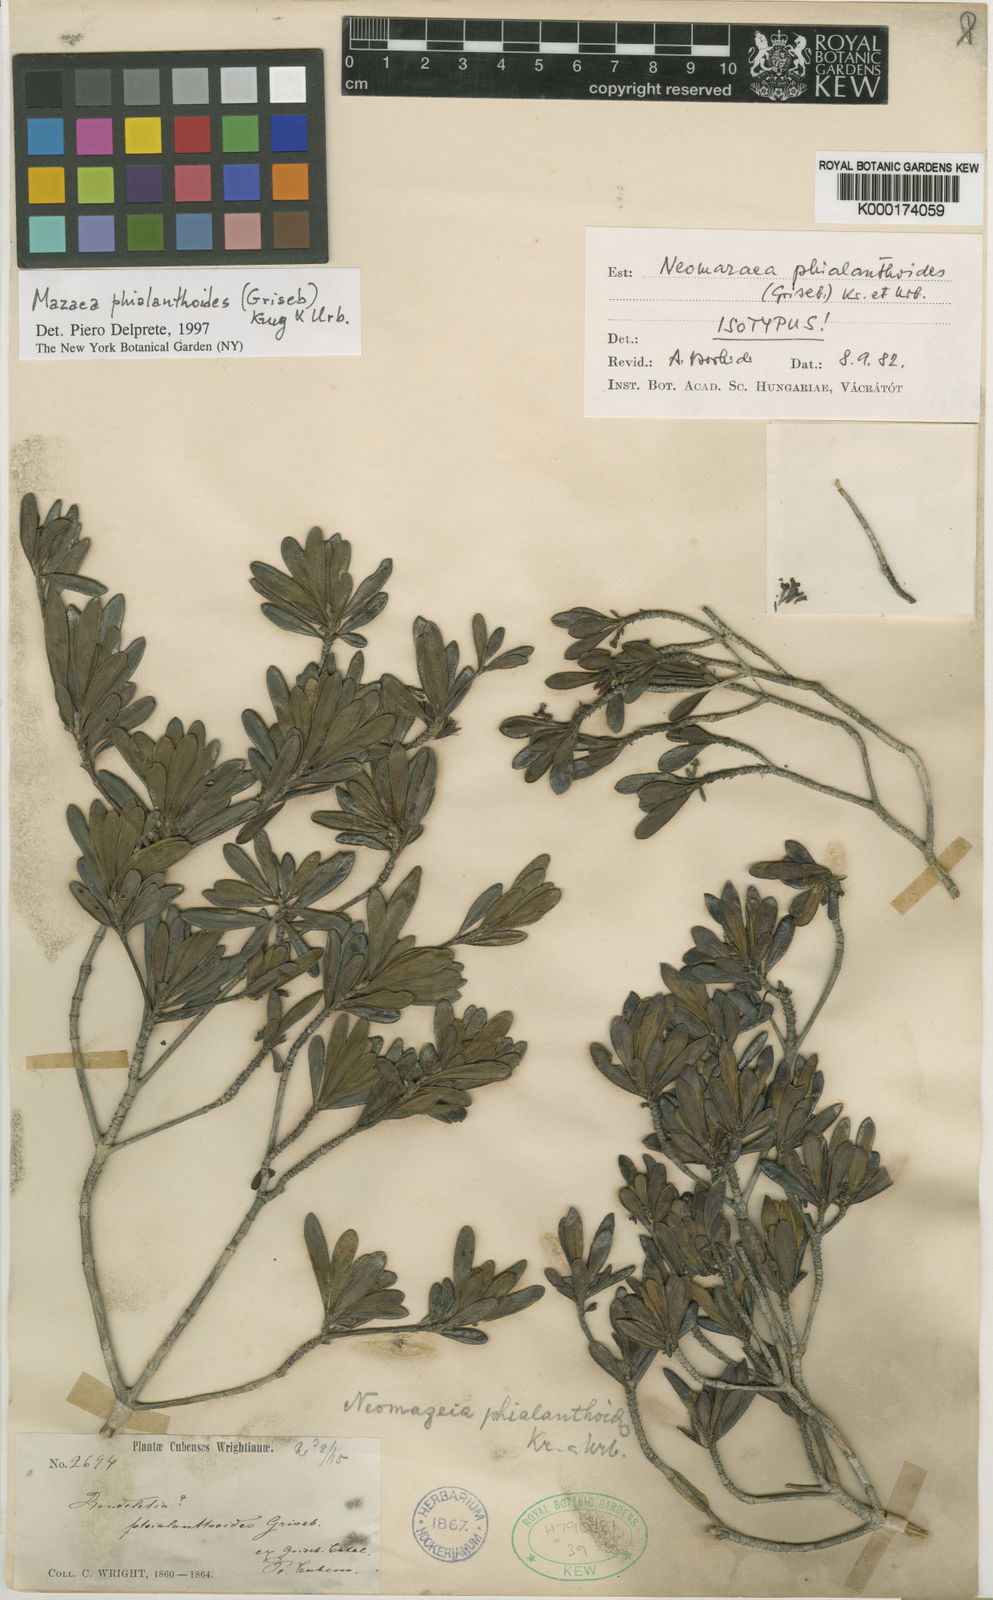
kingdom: Plantae
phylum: Tracheophyta
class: Magnoliopsida
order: Gentianales
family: Rubiaceae
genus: Mazaea
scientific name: Mazaea phialanthoides
